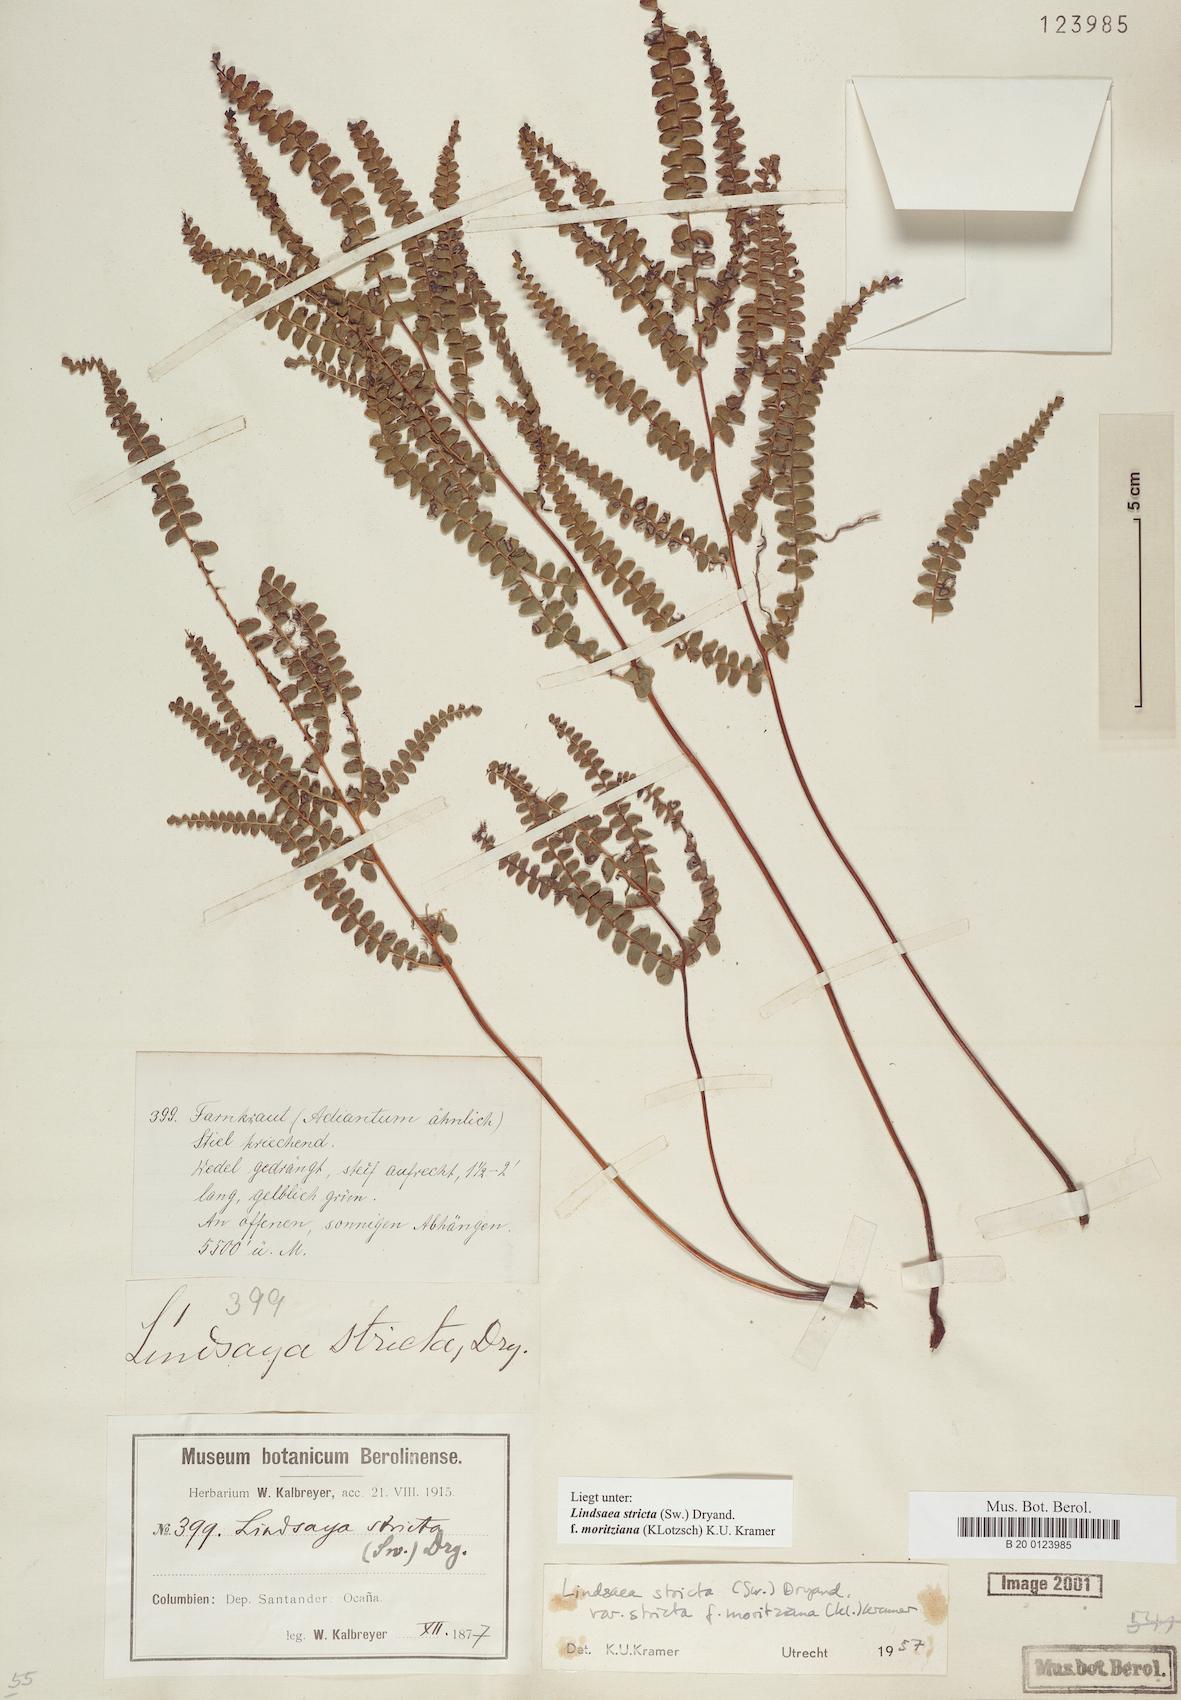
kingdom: Plantae
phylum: Tracheophyta
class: Polypodiopsida
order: Polypodiales
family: Lindsaeaceae
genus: Lindsaea
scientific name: Lindsaea guianensis
